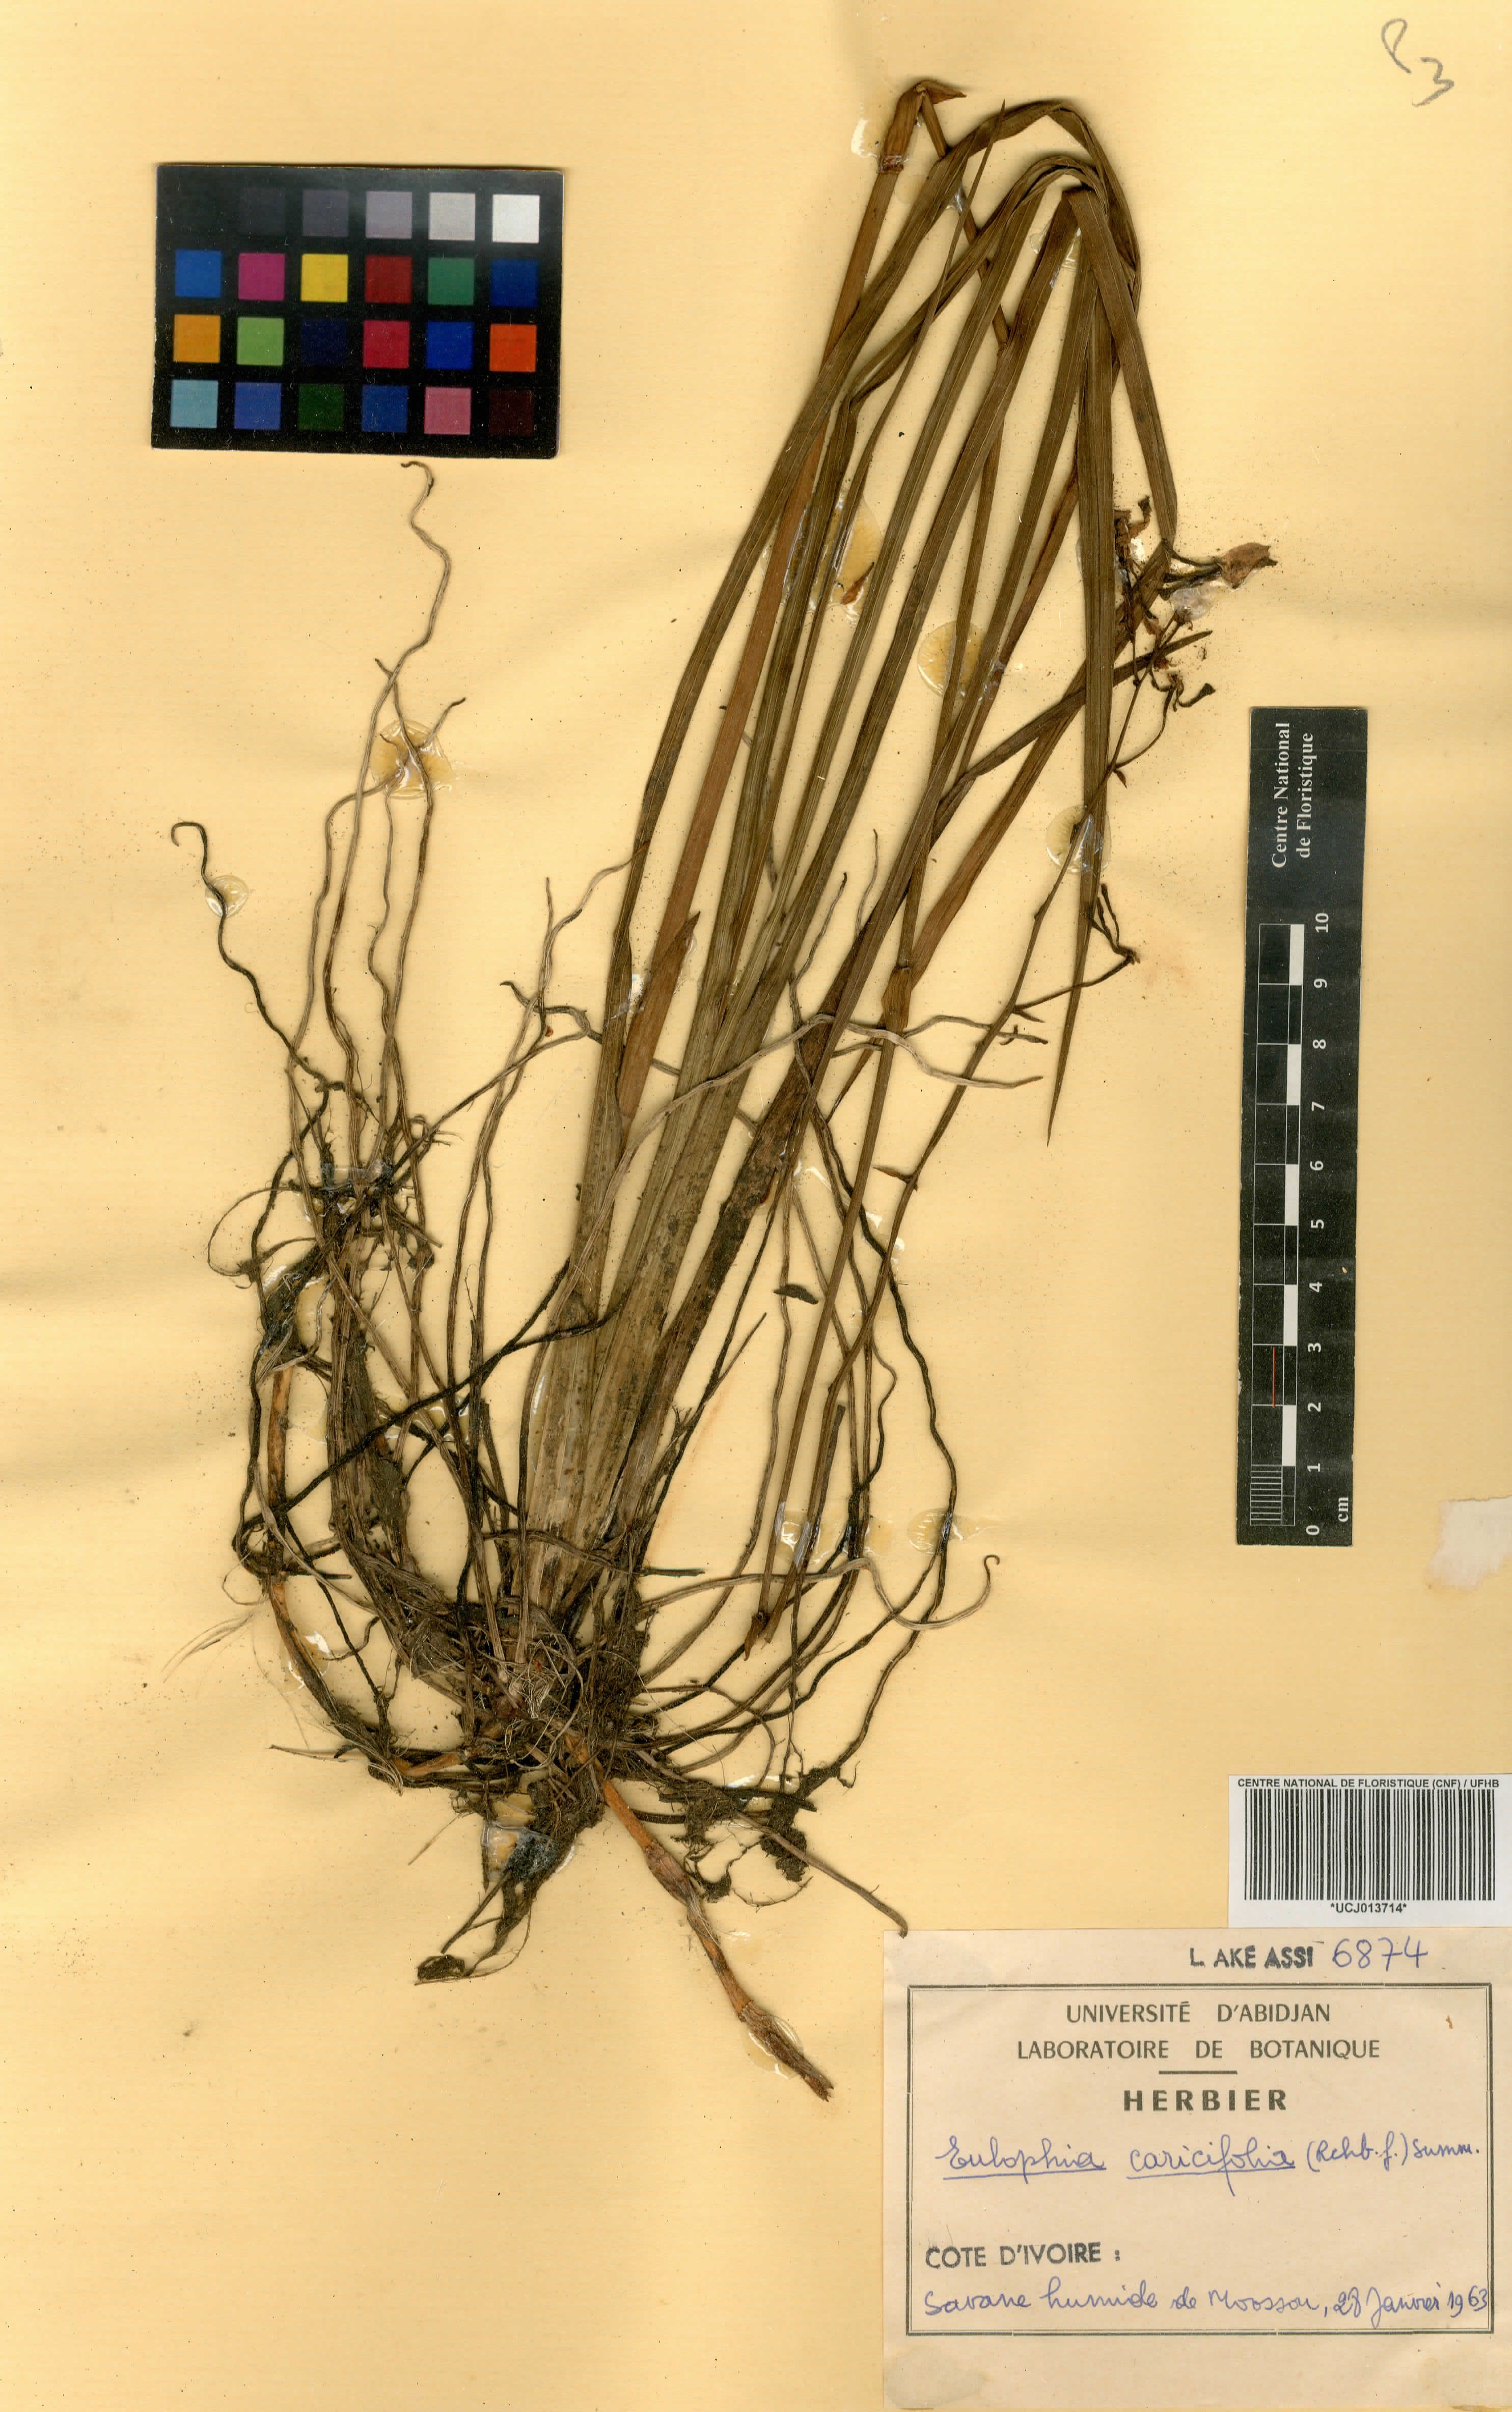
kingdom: Plantae
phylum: Tracheophyta
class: Liliopsida
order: Asparagales
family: Orchidaceae
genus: Eulophia
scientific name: Eulophia caricifolia
